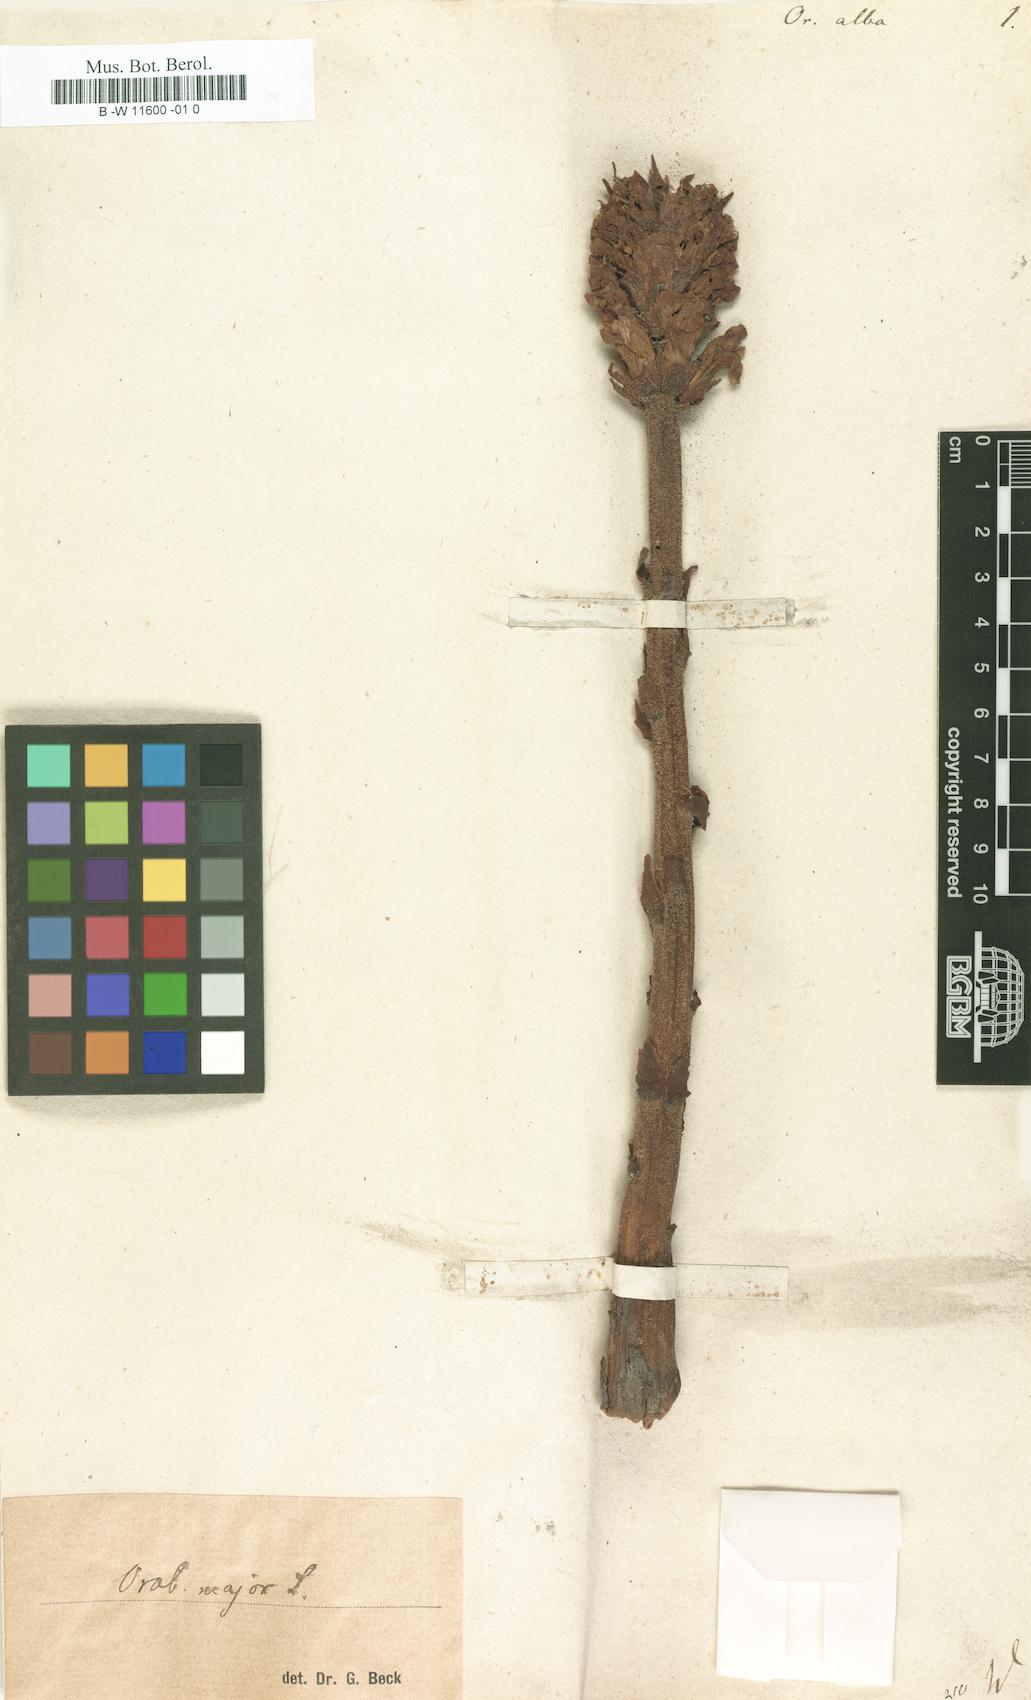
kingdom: Plantae
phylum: Tracheophyta
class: Magnoliopsida
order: Lamiales
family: Orobanchaceae
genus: Orobanche
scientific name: Orobanche alba
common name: Thyme broomrape
